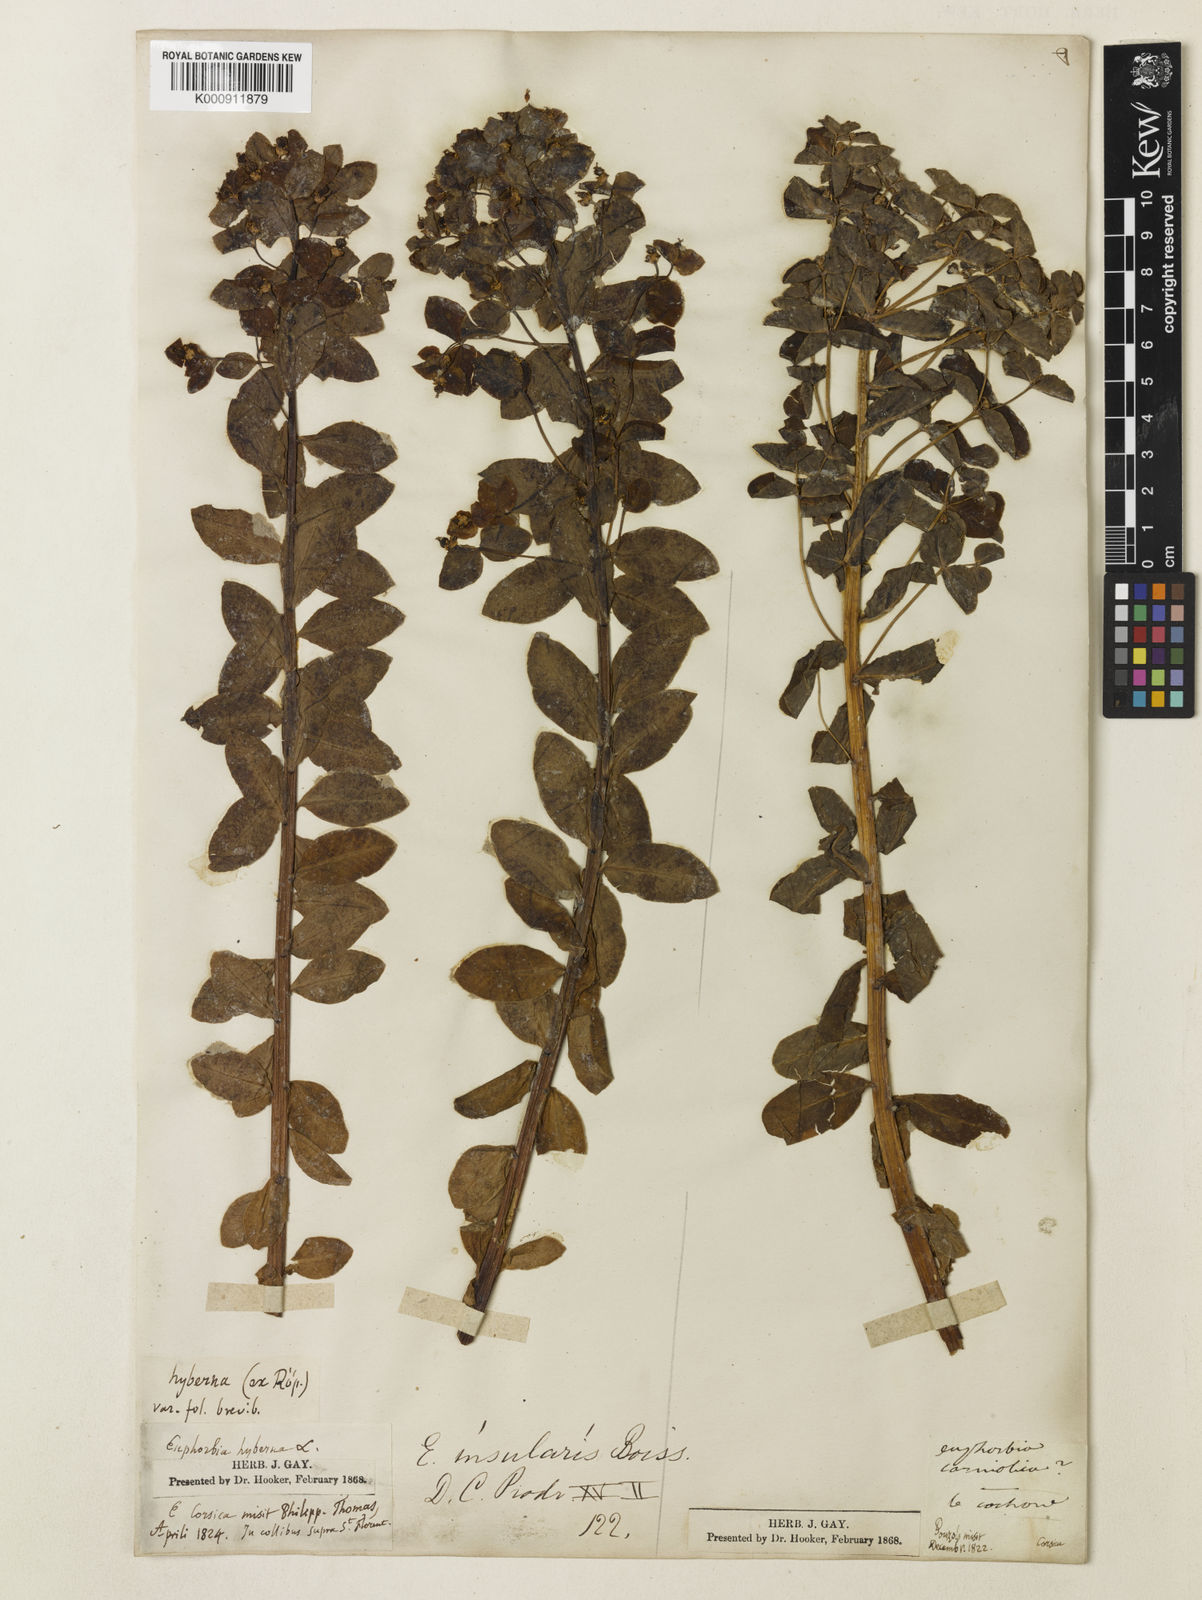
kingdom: Plantae
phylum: Tracheophyta
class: Magnoliopsida
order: Malpighiales
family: Euphorbiaceae
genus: Euphorbia
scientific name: Euphorbia insularis
